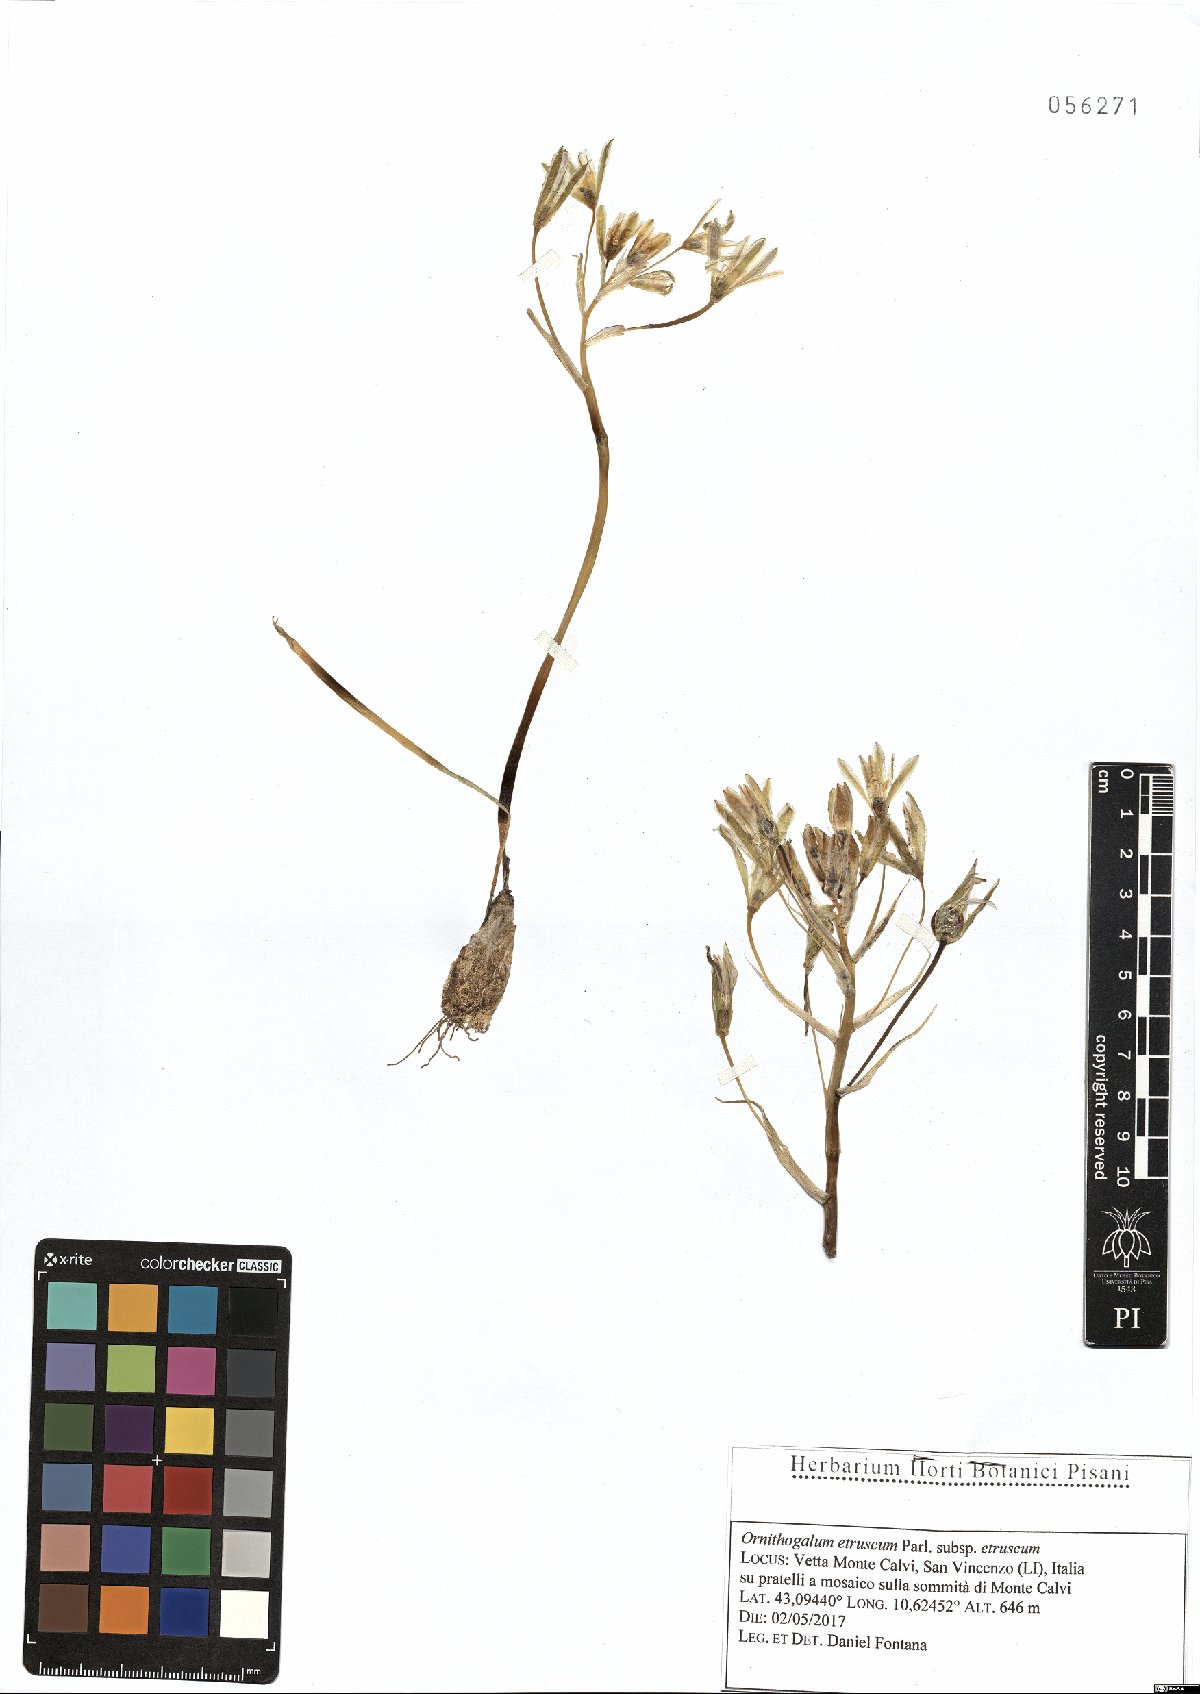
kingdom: Plantae
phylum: Tracheophyta
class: Liliopsida
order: Asparagales
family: Asparagaceae
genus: Ornithogalum
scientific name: Ornithogalum orthophyllum
